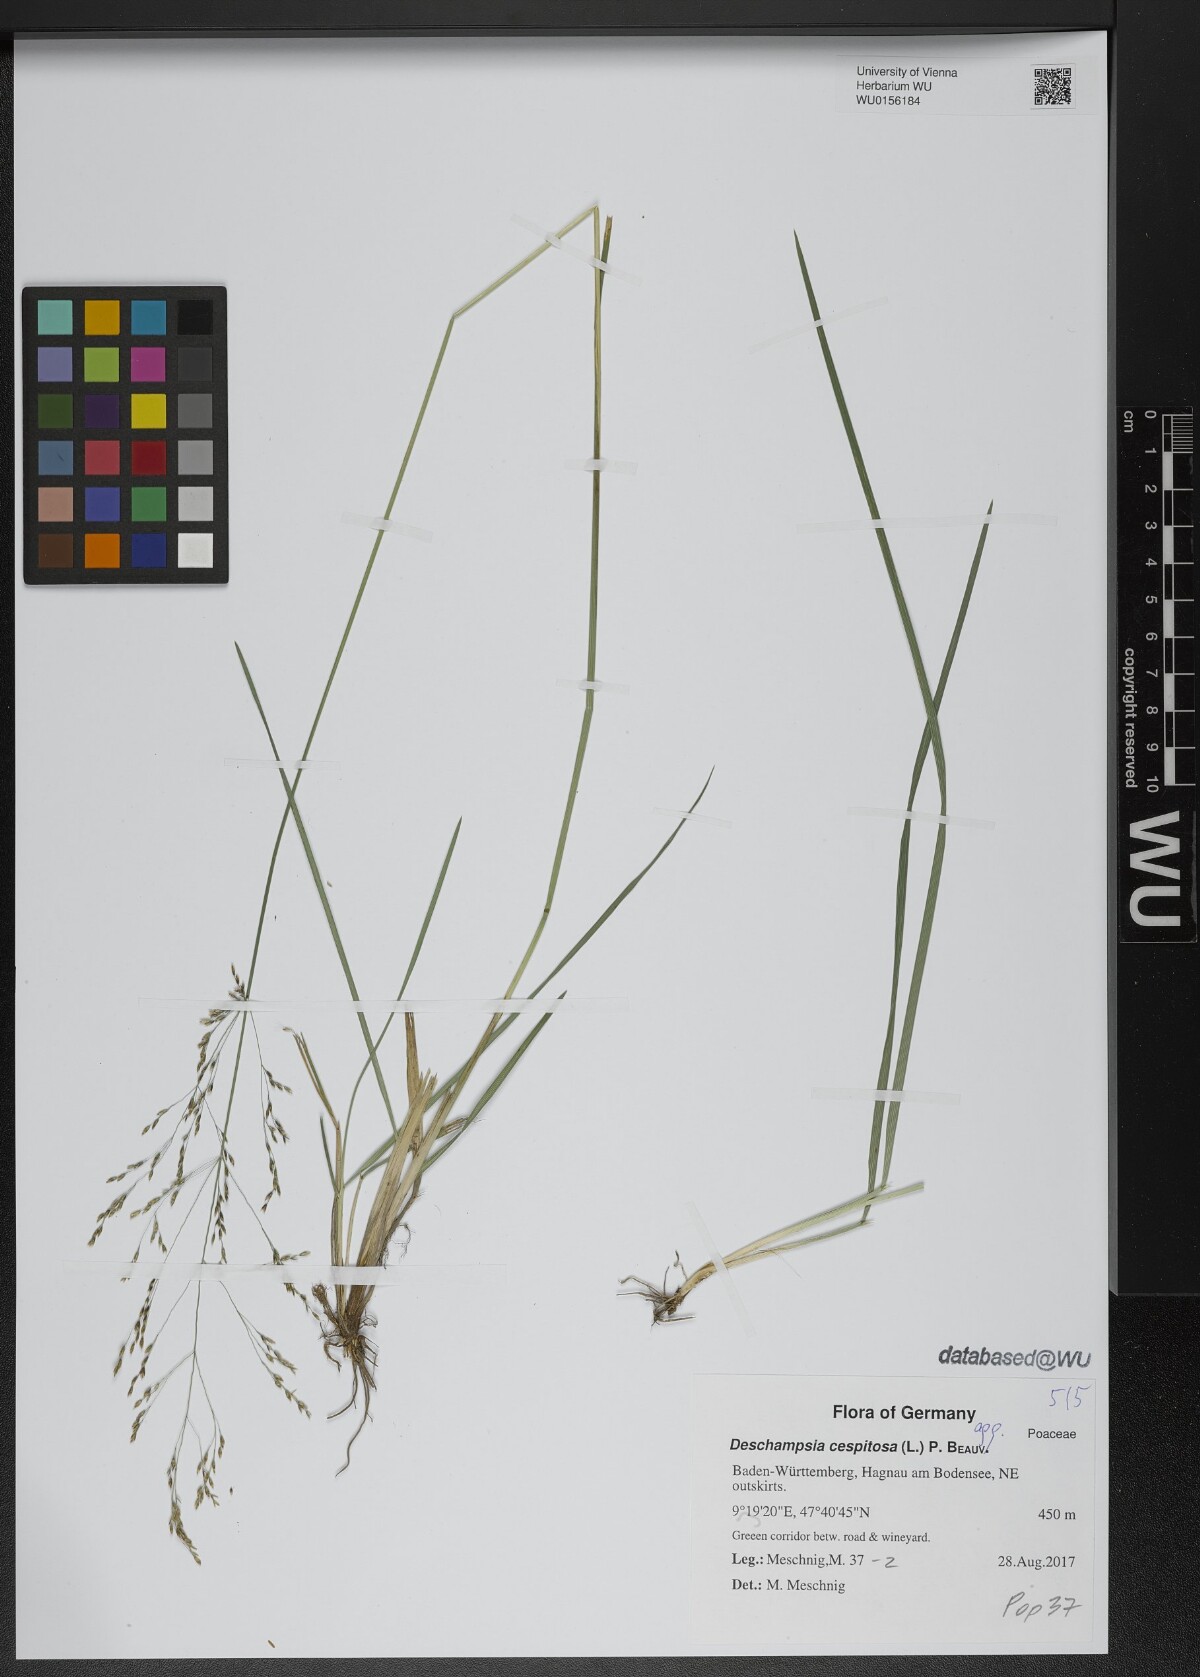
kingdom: Plantae
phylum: Tracheophyta
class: Liliopsida
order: Poales
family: Poaceae
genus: Deschampsia
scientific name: Deschampsia cespitosa
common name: Tufted hair-grass
